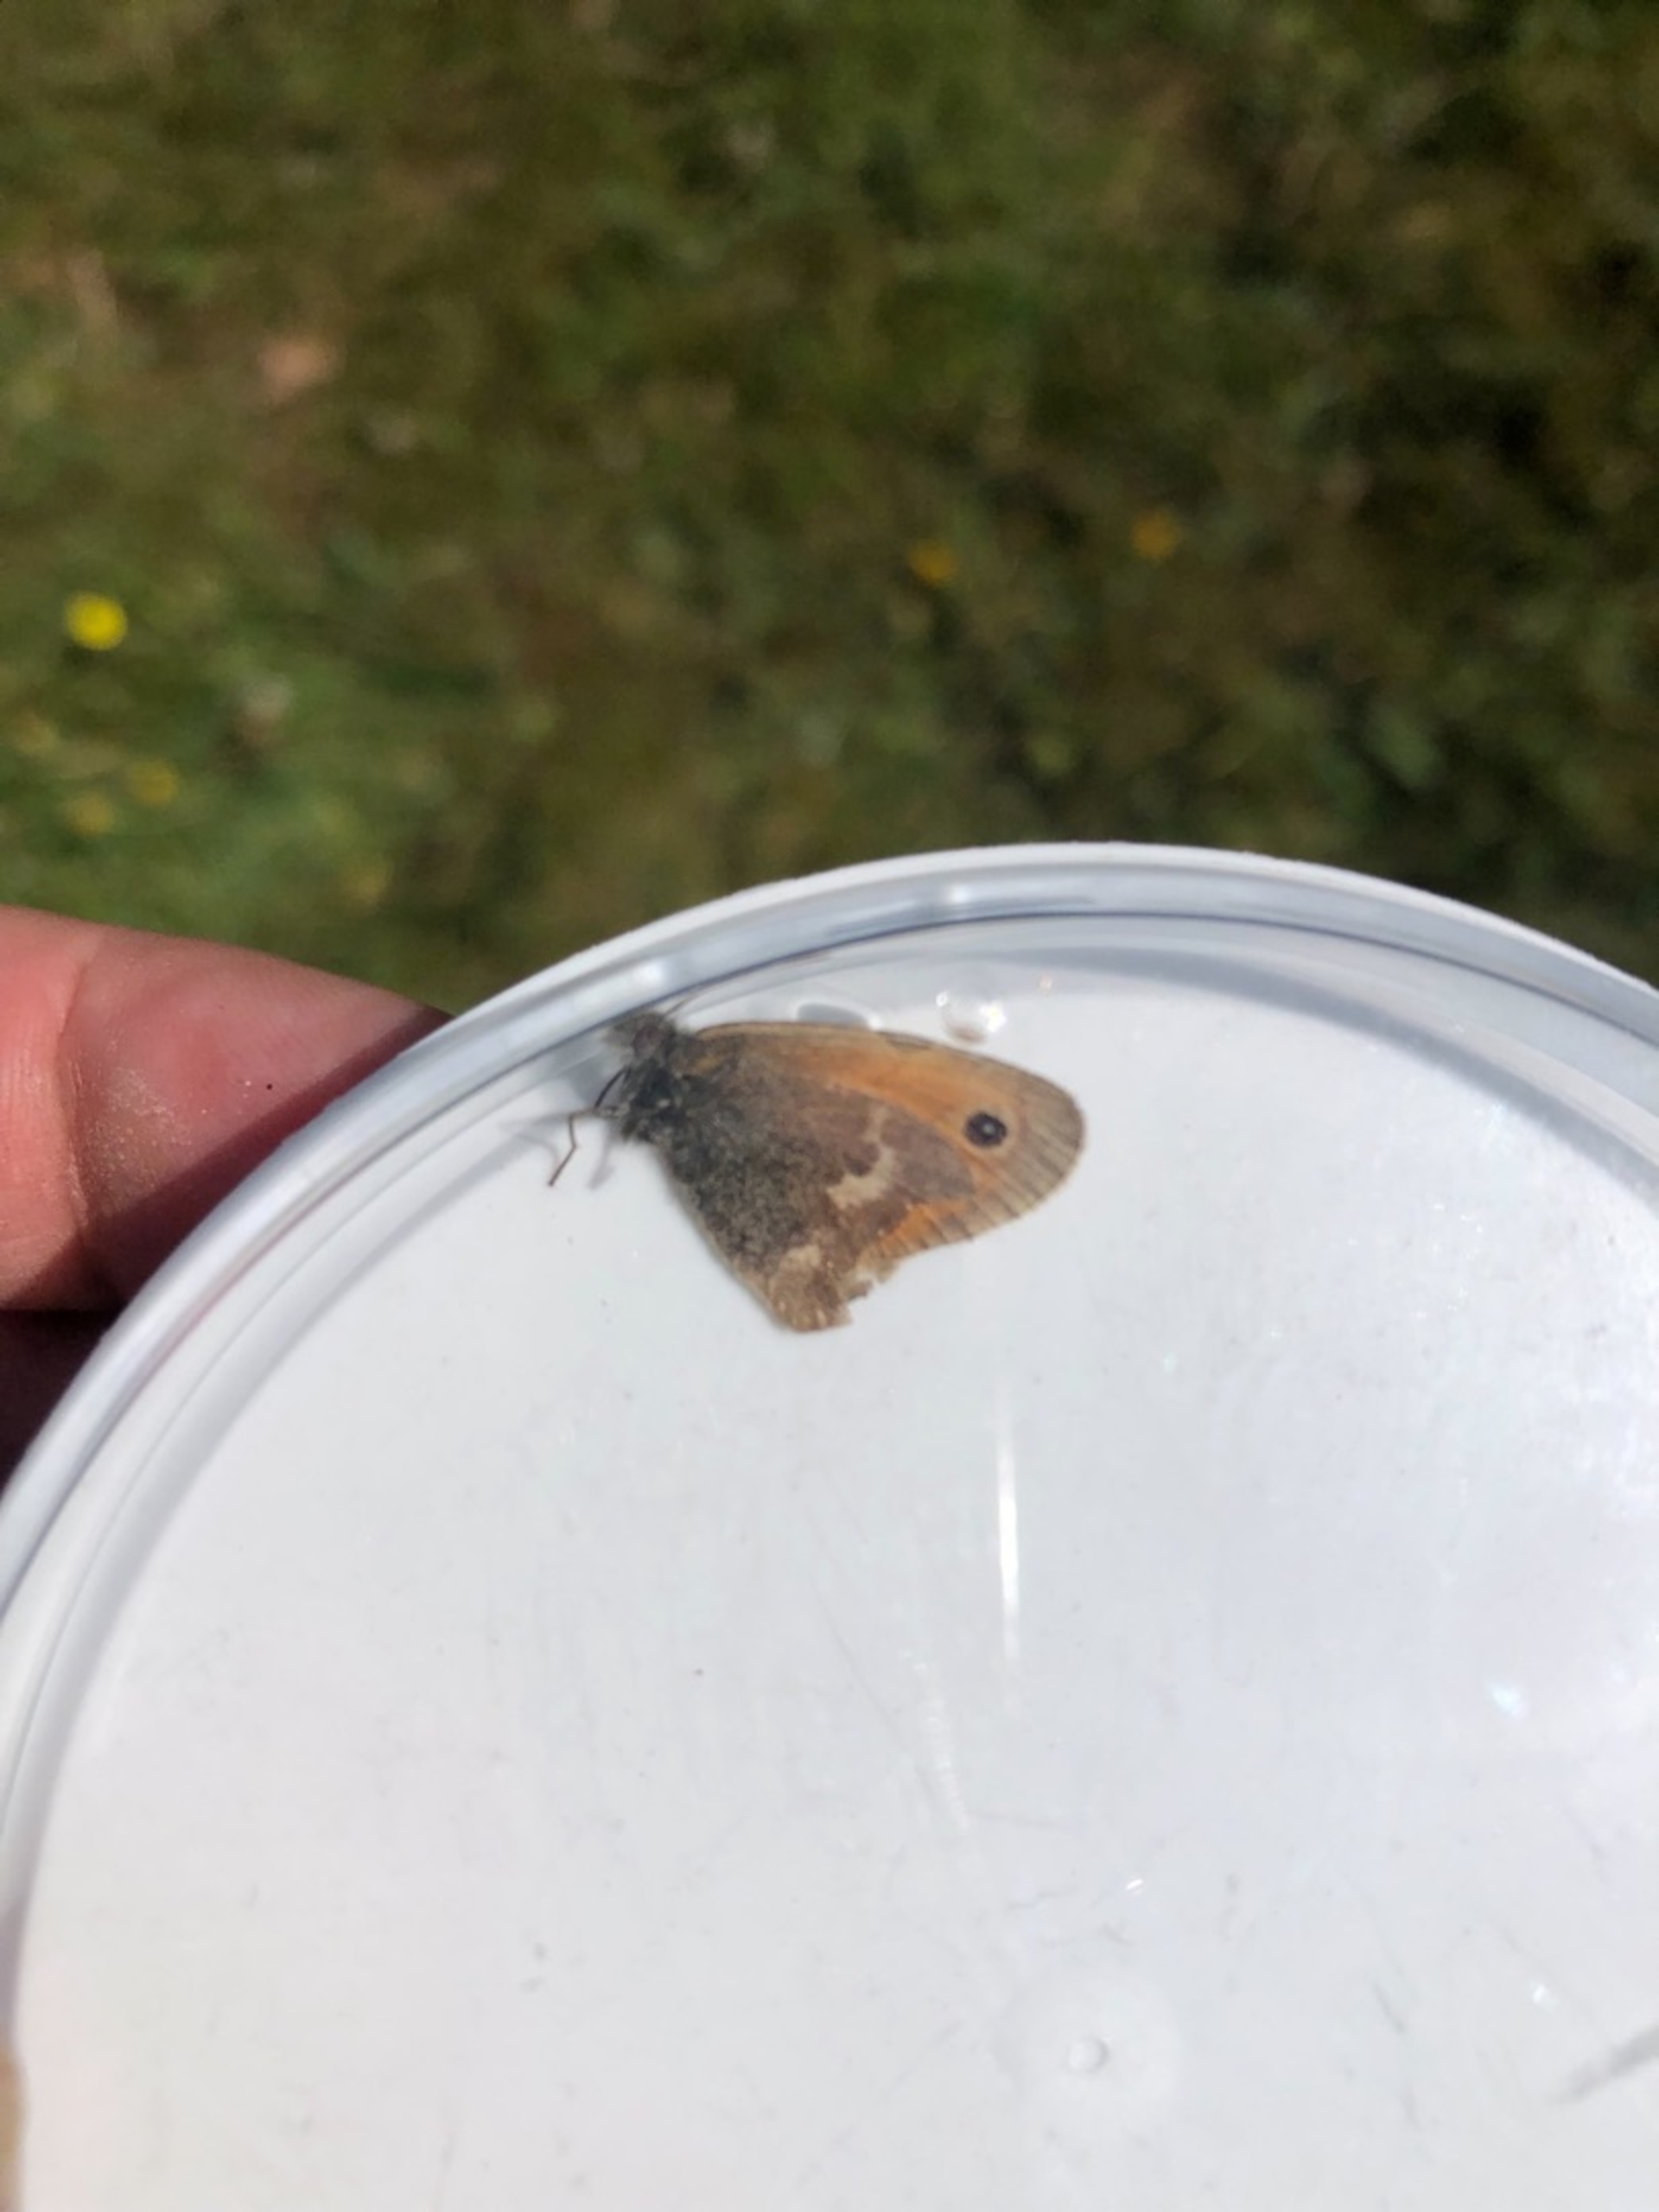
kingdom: Animalia
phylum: Arthropoda
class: Insecta
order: Lepidoptera
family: Nymphalidae
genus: Coenonympha
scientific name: Coenonympha pamphilus
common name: Okkergul randøje
